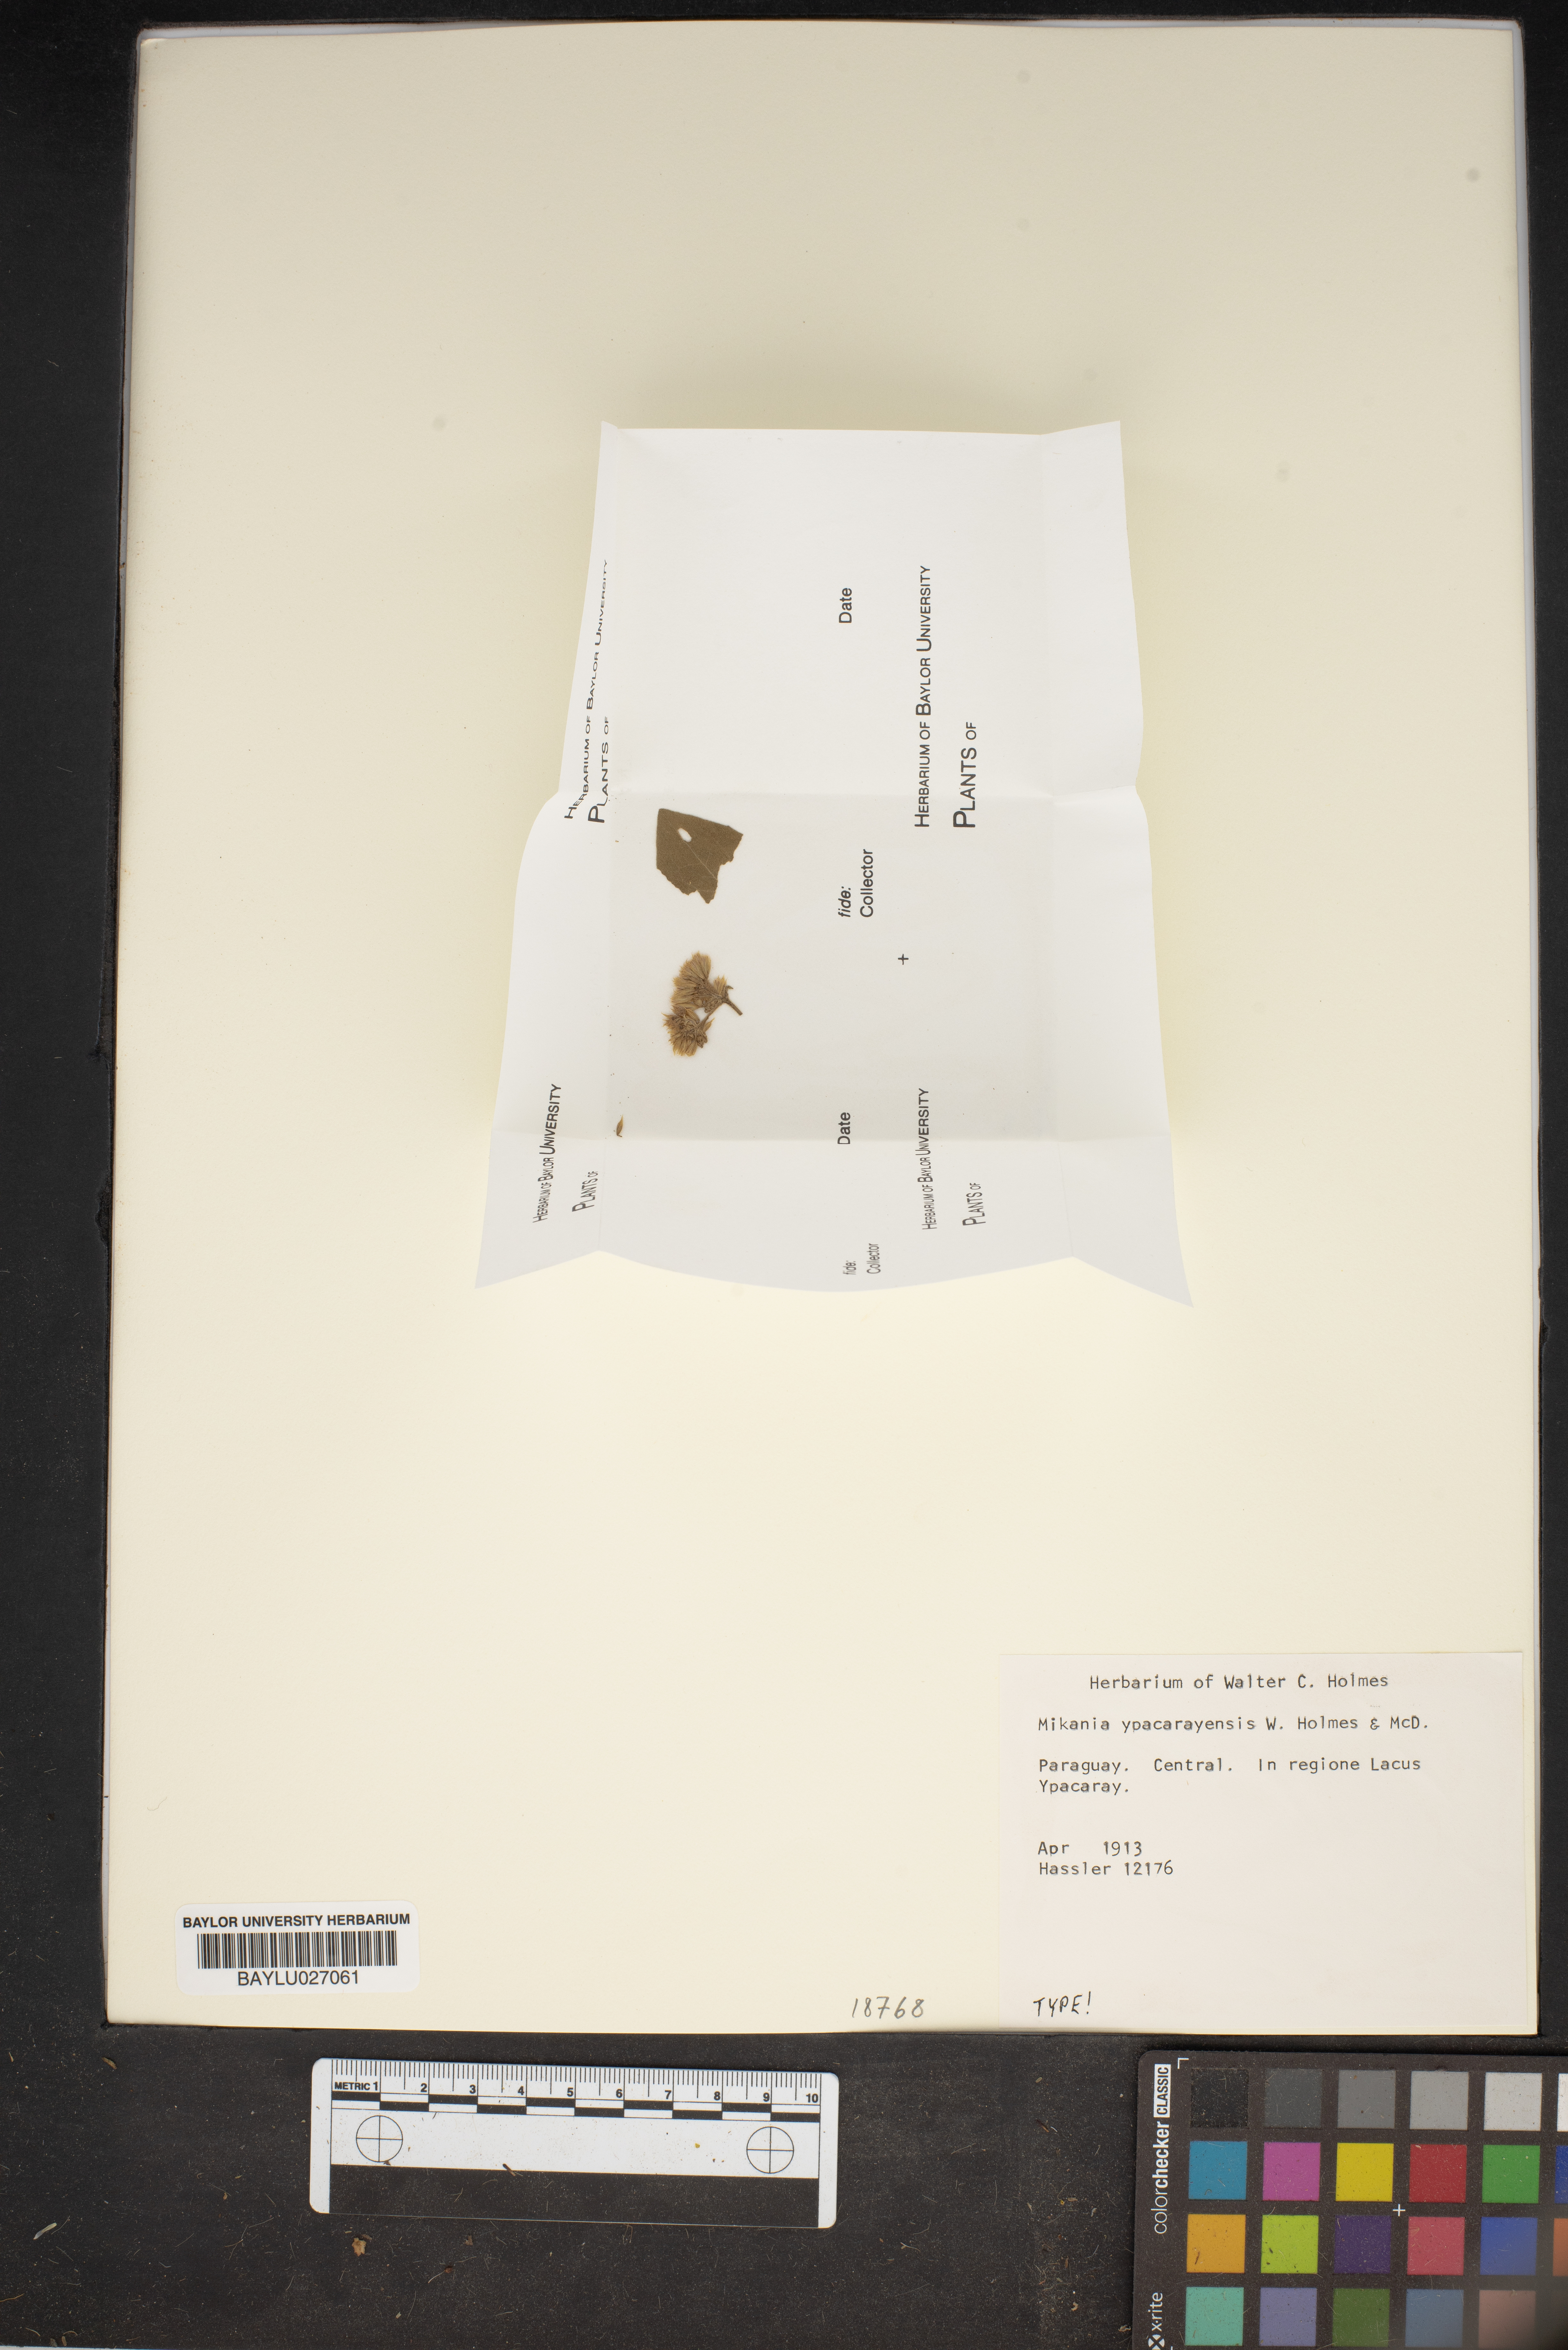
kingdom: Plantae
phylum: Tracheophyta
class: Magnoliopsida
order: Asterales
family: Asteraceae
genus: Mikania
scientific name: Mikania trachypleura
